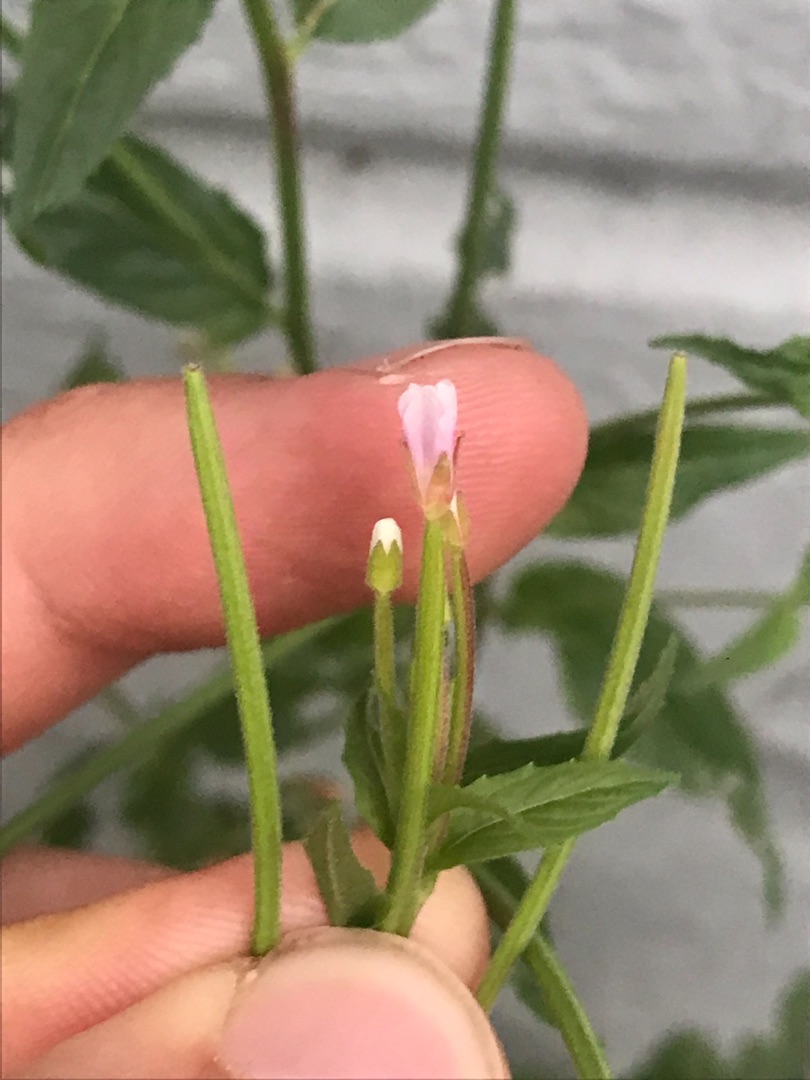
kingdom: Plantae
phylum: Tracheophyta
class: Magnoliopsida
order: Myrtales
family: Onagraceae
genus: Epilobium
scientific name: Epilobium ciliatum
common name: Hvid dueurt
